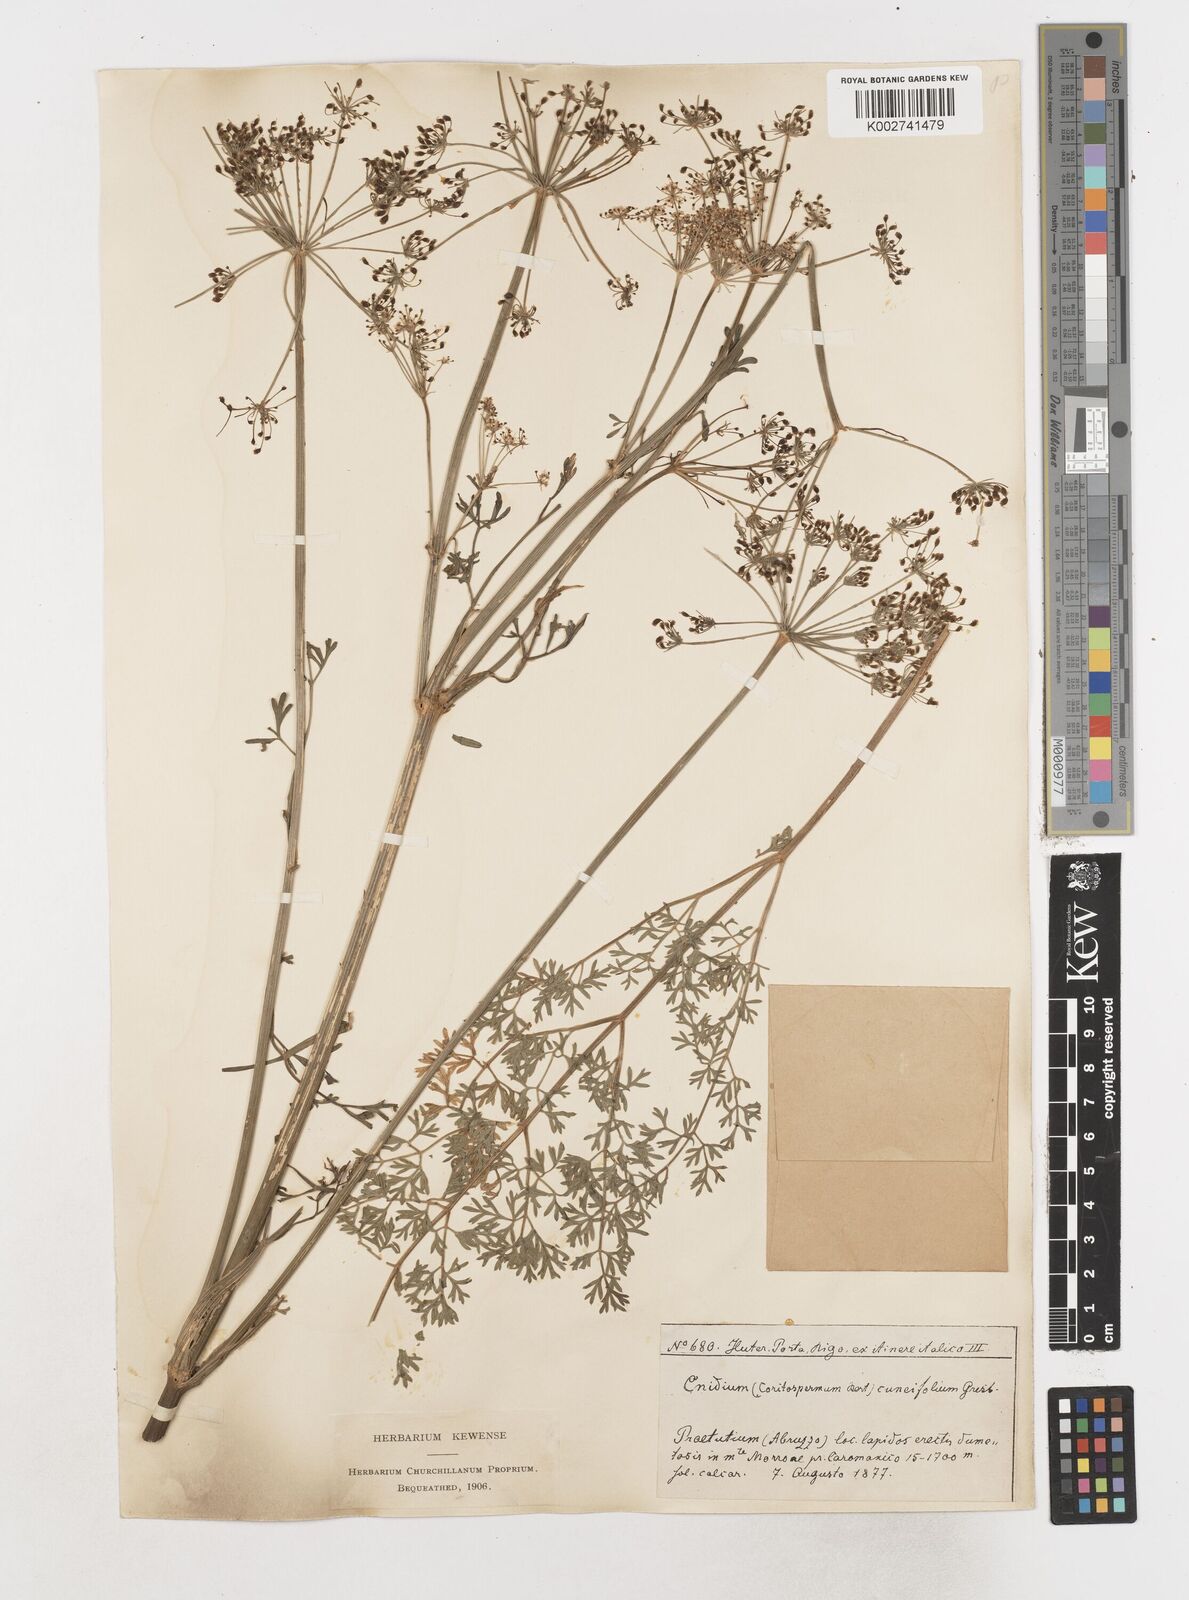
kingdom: Plantae
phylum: Tracheophyta
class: Magnoliopsida
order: Apiales
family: Apiaceae
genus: Coristospermum
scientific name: Coristospermum cuneifolium
